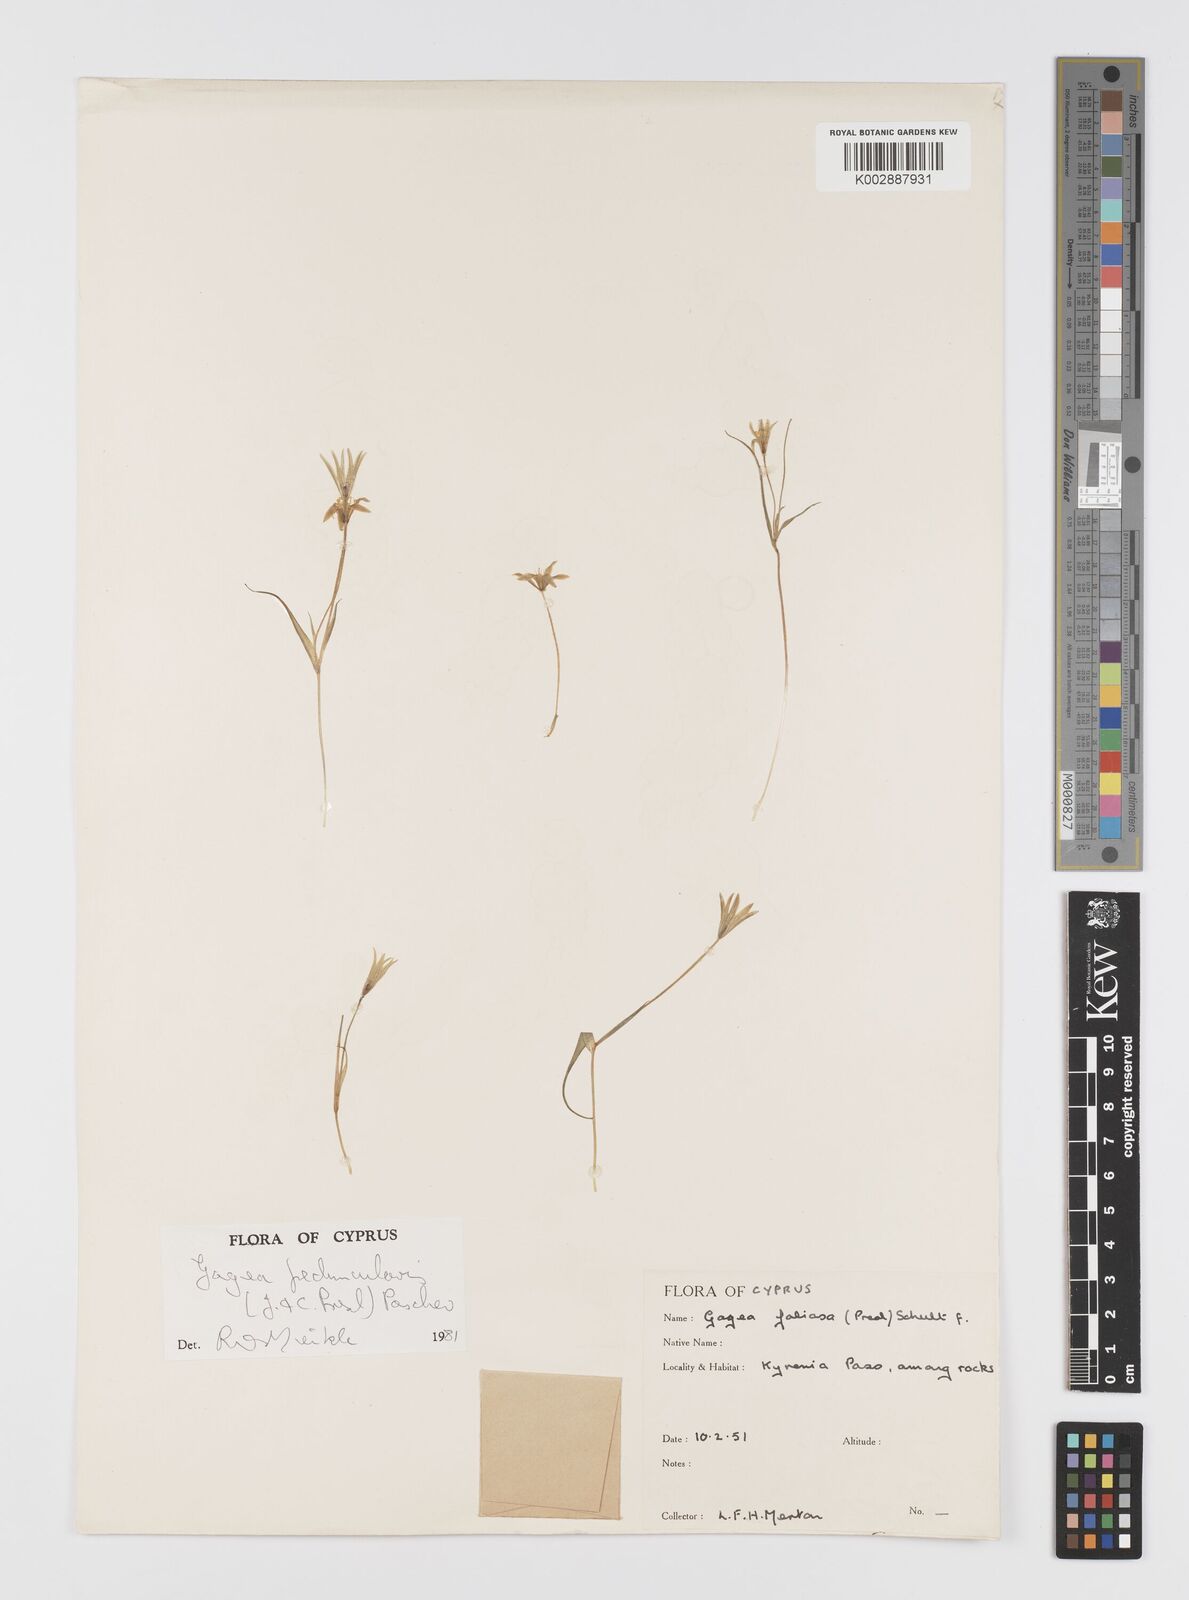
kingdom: Plantae
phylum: Tracheophyta
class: Liliopsida
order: Liliales
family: Liliaceae
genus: Gagea
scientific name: Gagea peduncularis
